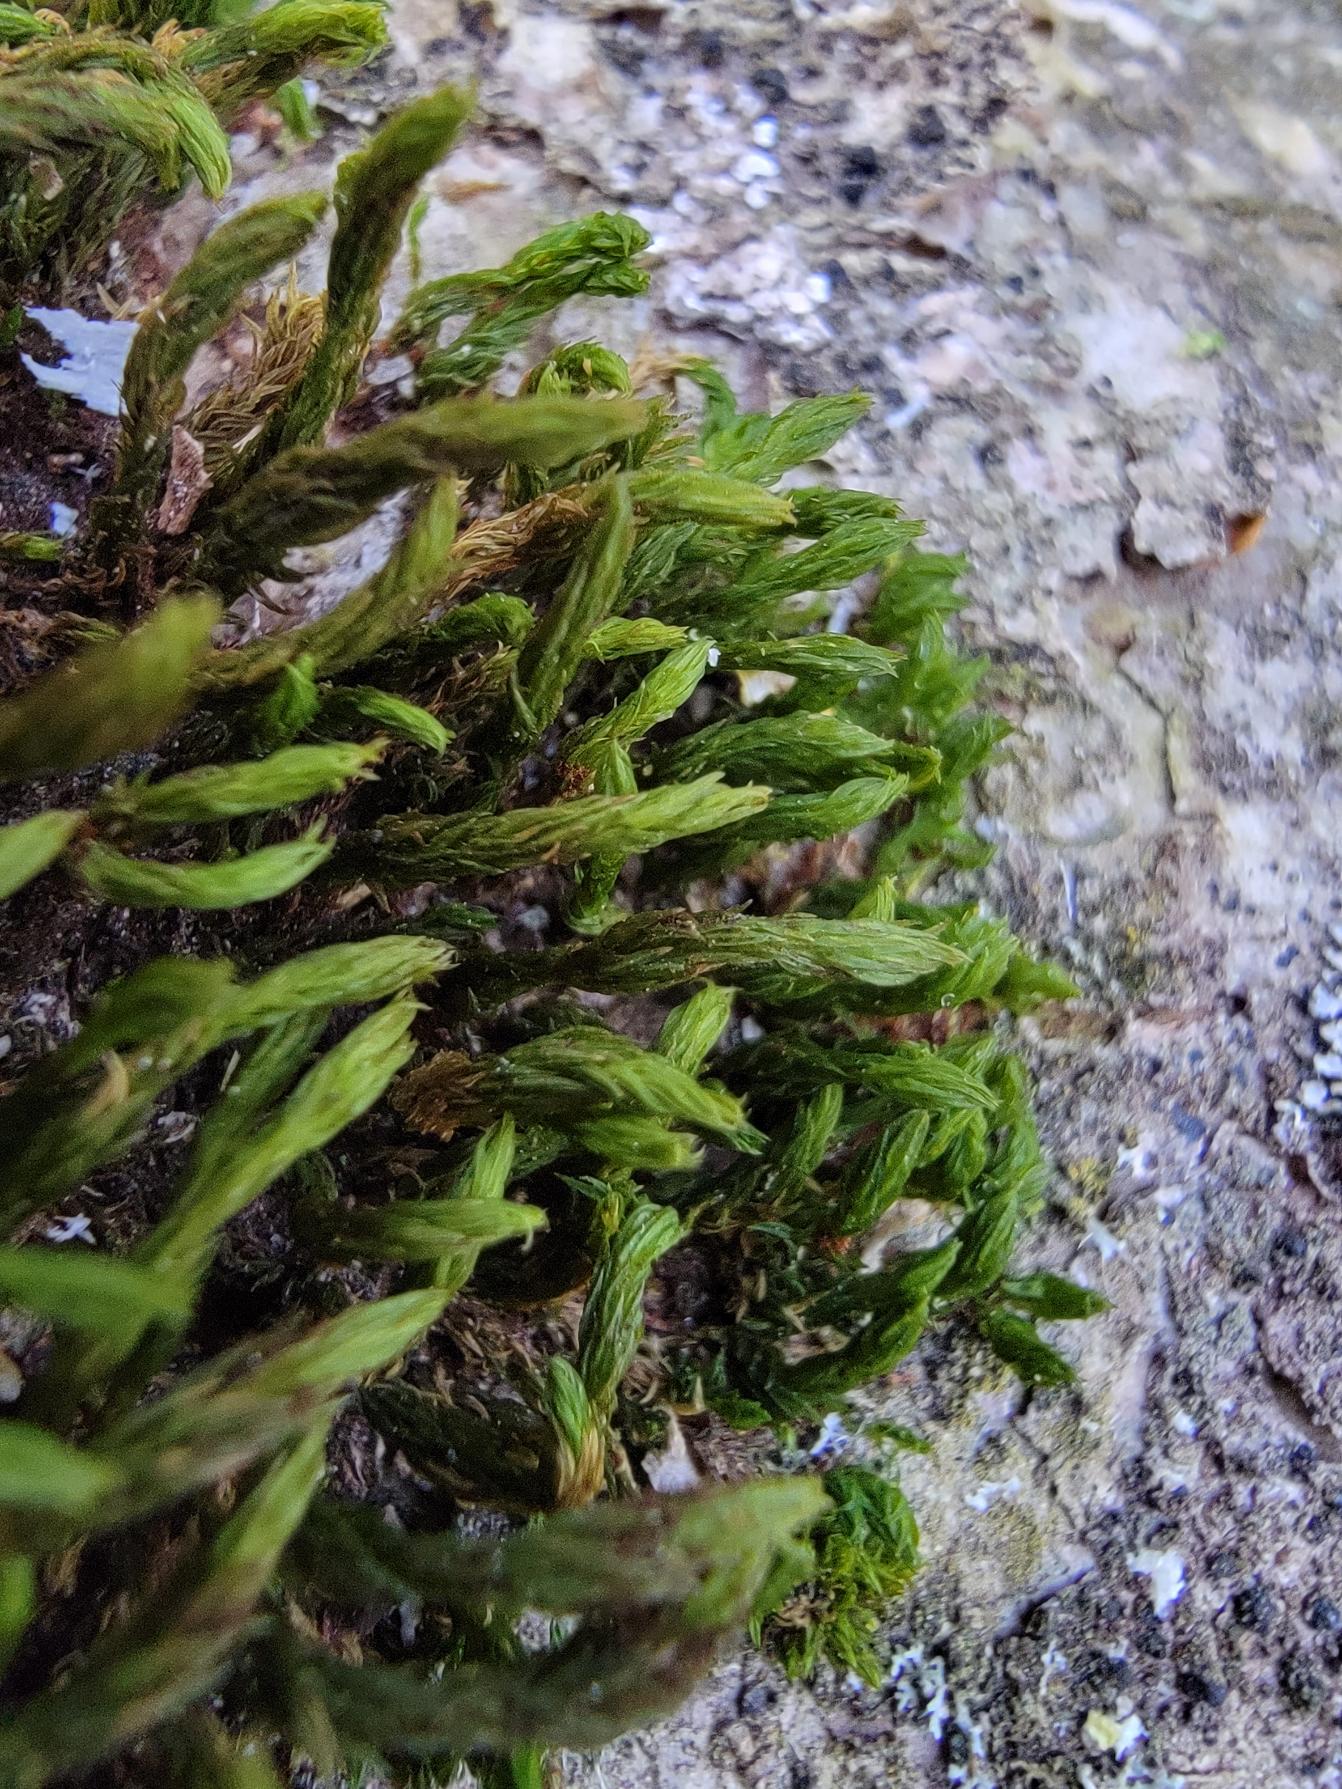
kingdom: Plantae
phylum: Bryophyta
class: Bryopsida
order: Orthotrichales
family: Orthotrichaceae
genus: Pulvigera
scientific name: Pulvigera lyellii
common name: Stor furehætte
